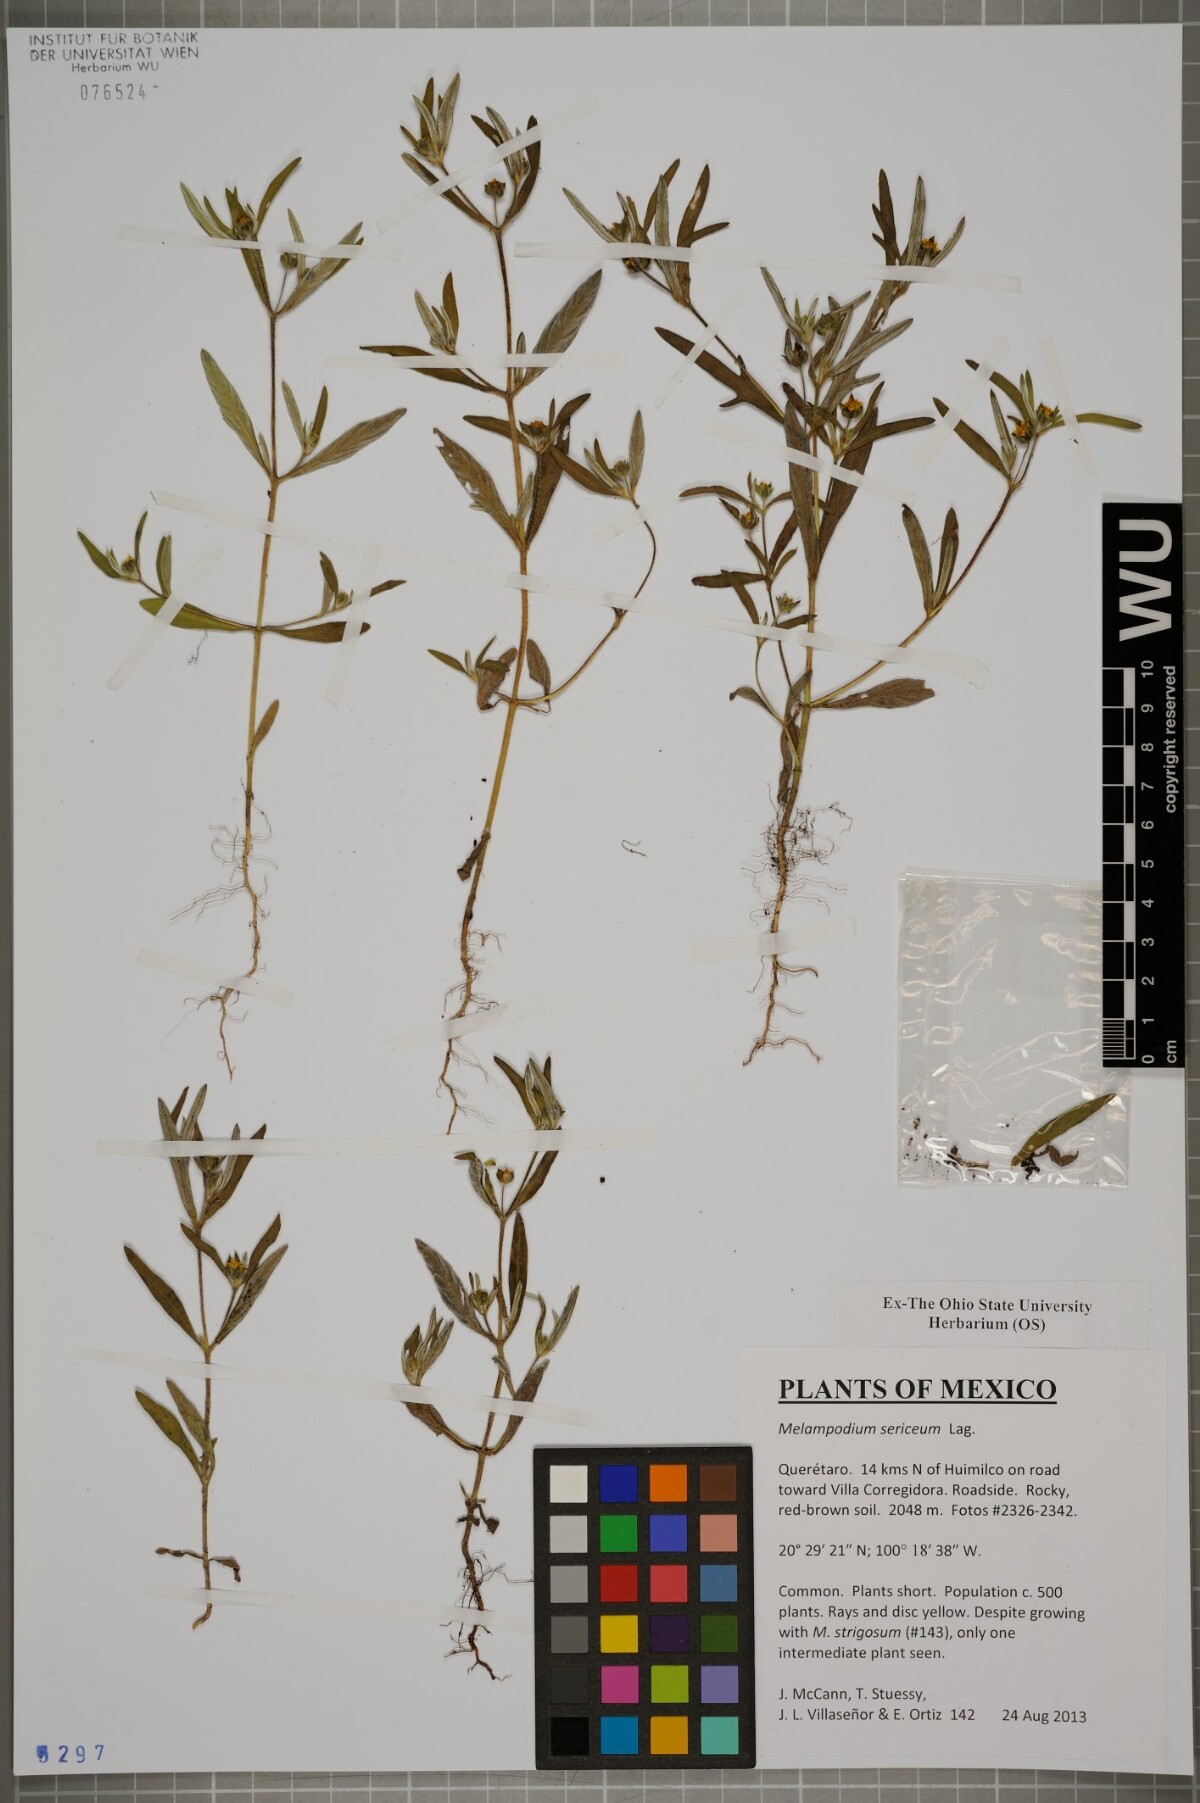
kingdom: Plantae
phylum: Tracheophyta
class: Magnoliopsida
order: Asterales
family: Asteraceae
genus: Melampodium
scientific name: Melampodium sericeum
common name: Rough blackfoot
